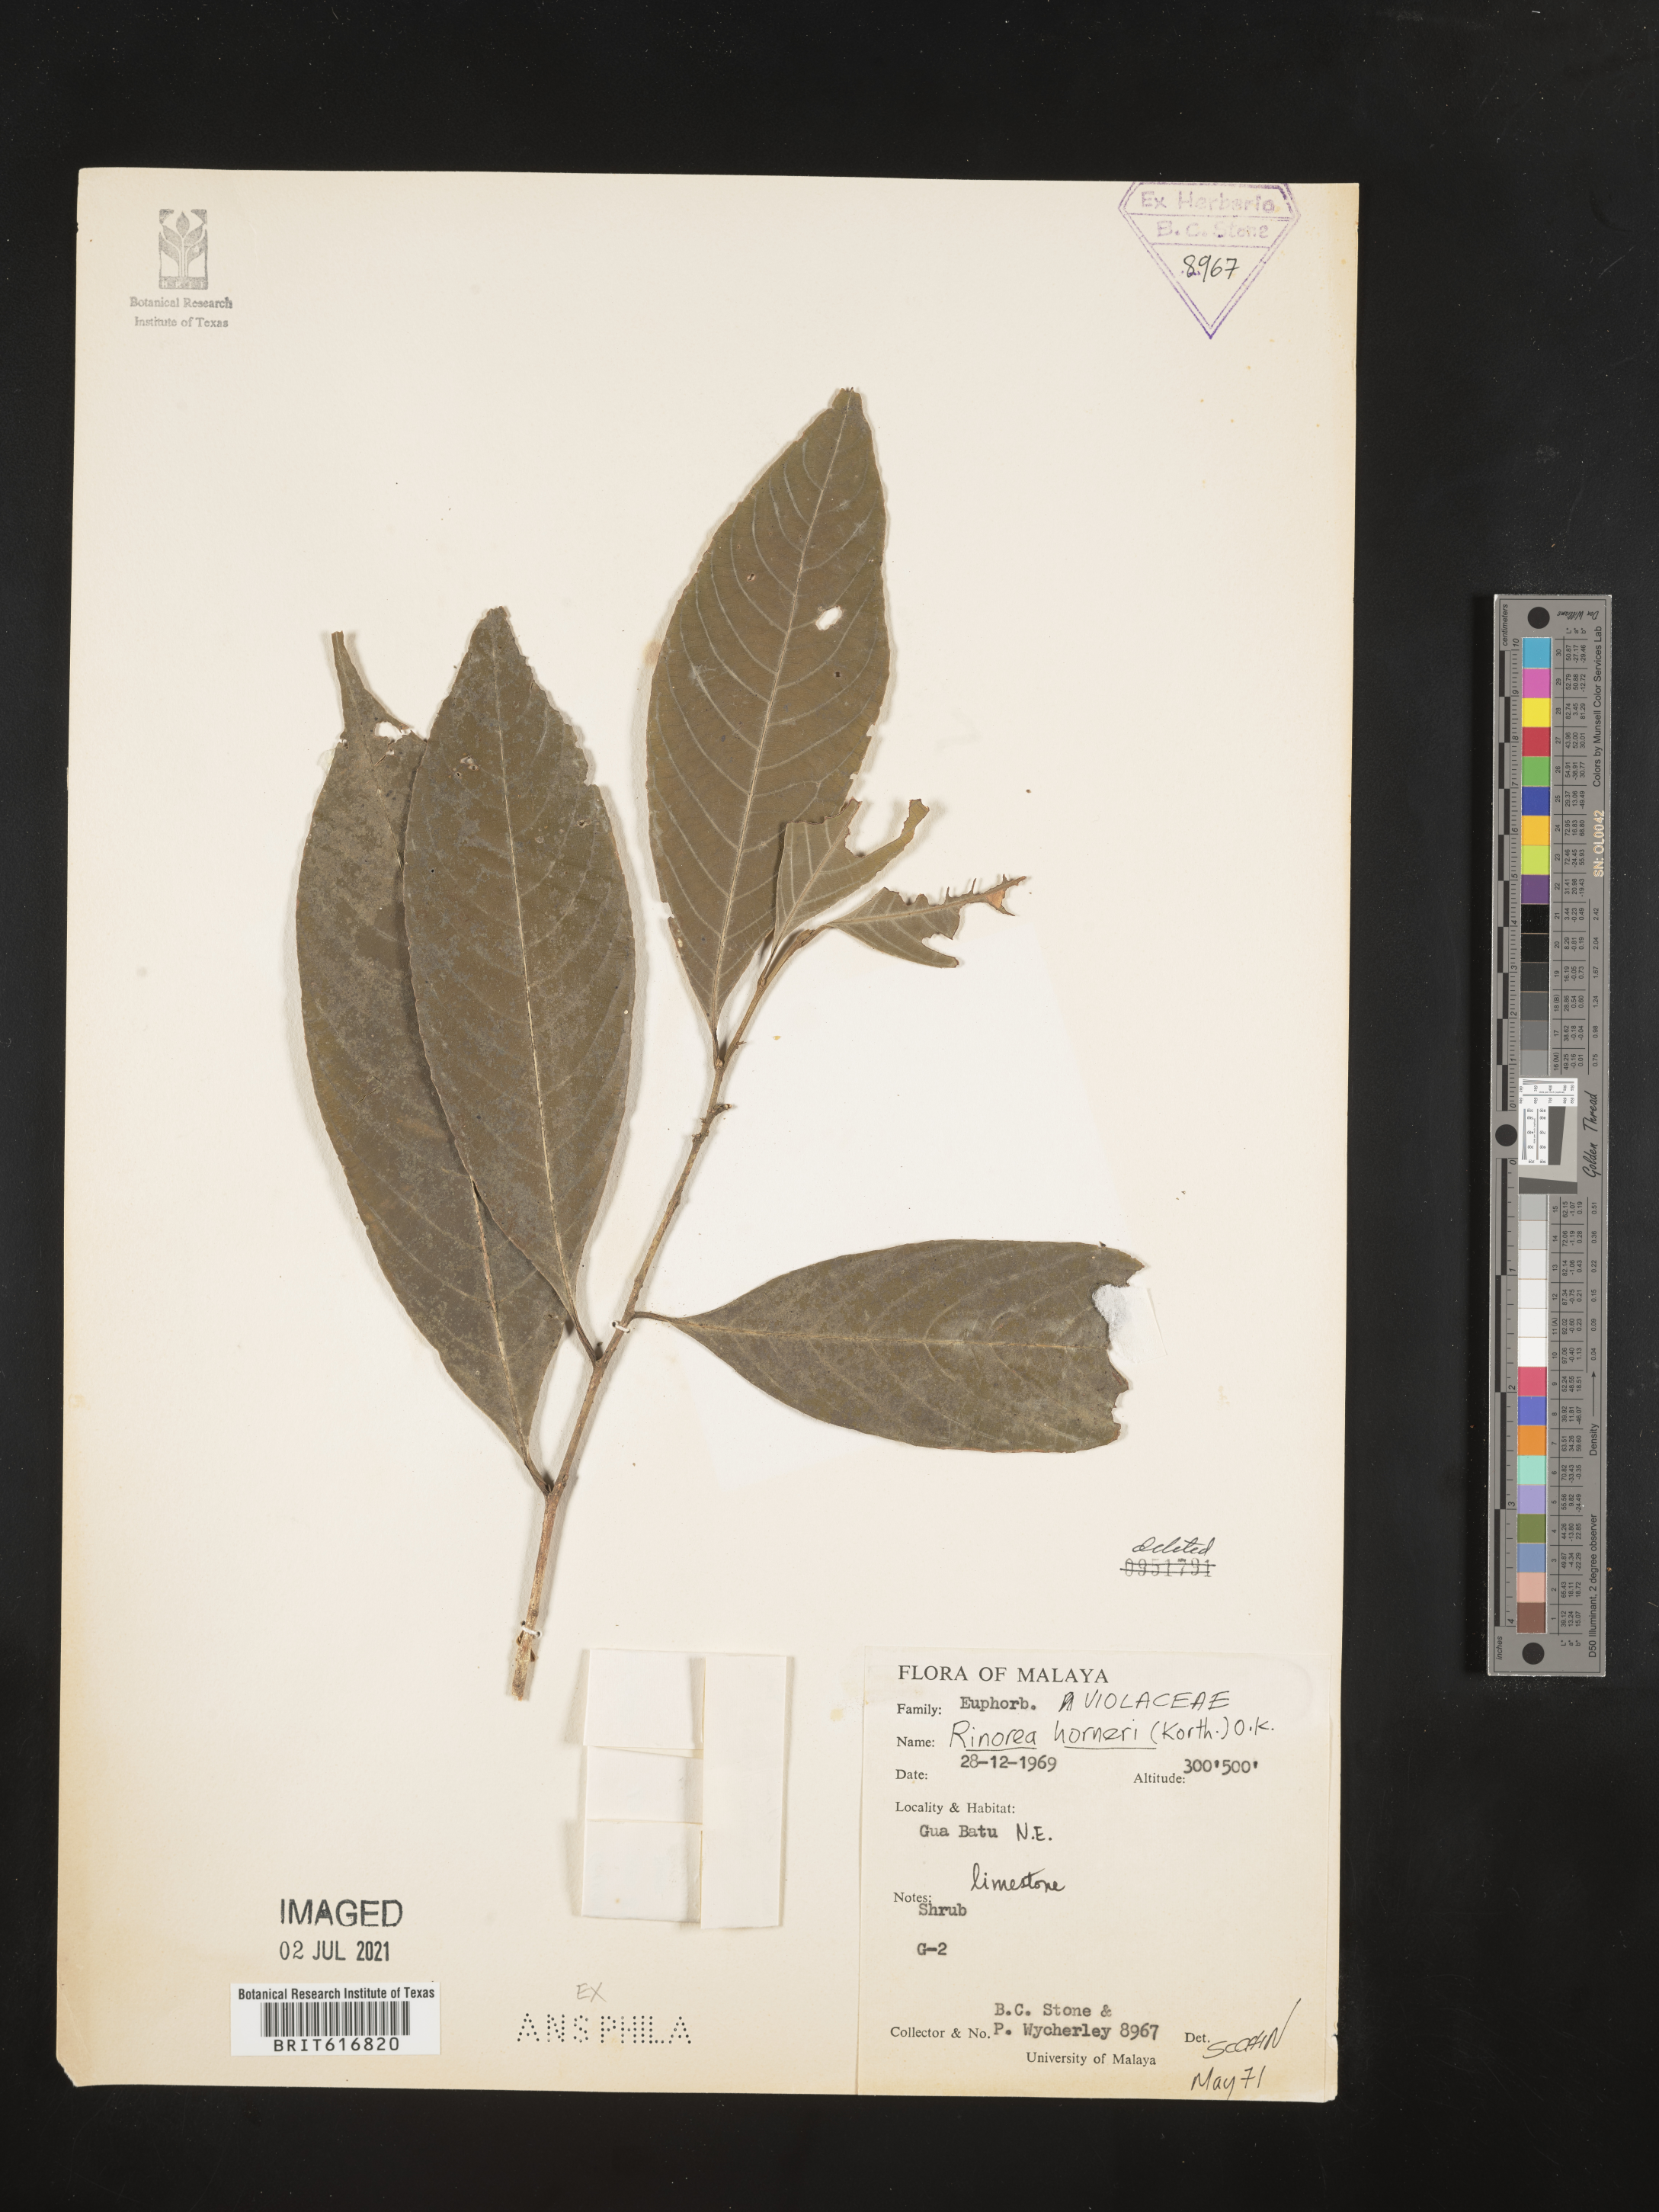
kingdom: Plantae
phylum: Tracheophyta
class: Magnoliopsida
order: Malpighiales
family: Violaceae
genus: Rinorea
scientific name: Rinorea horneri
